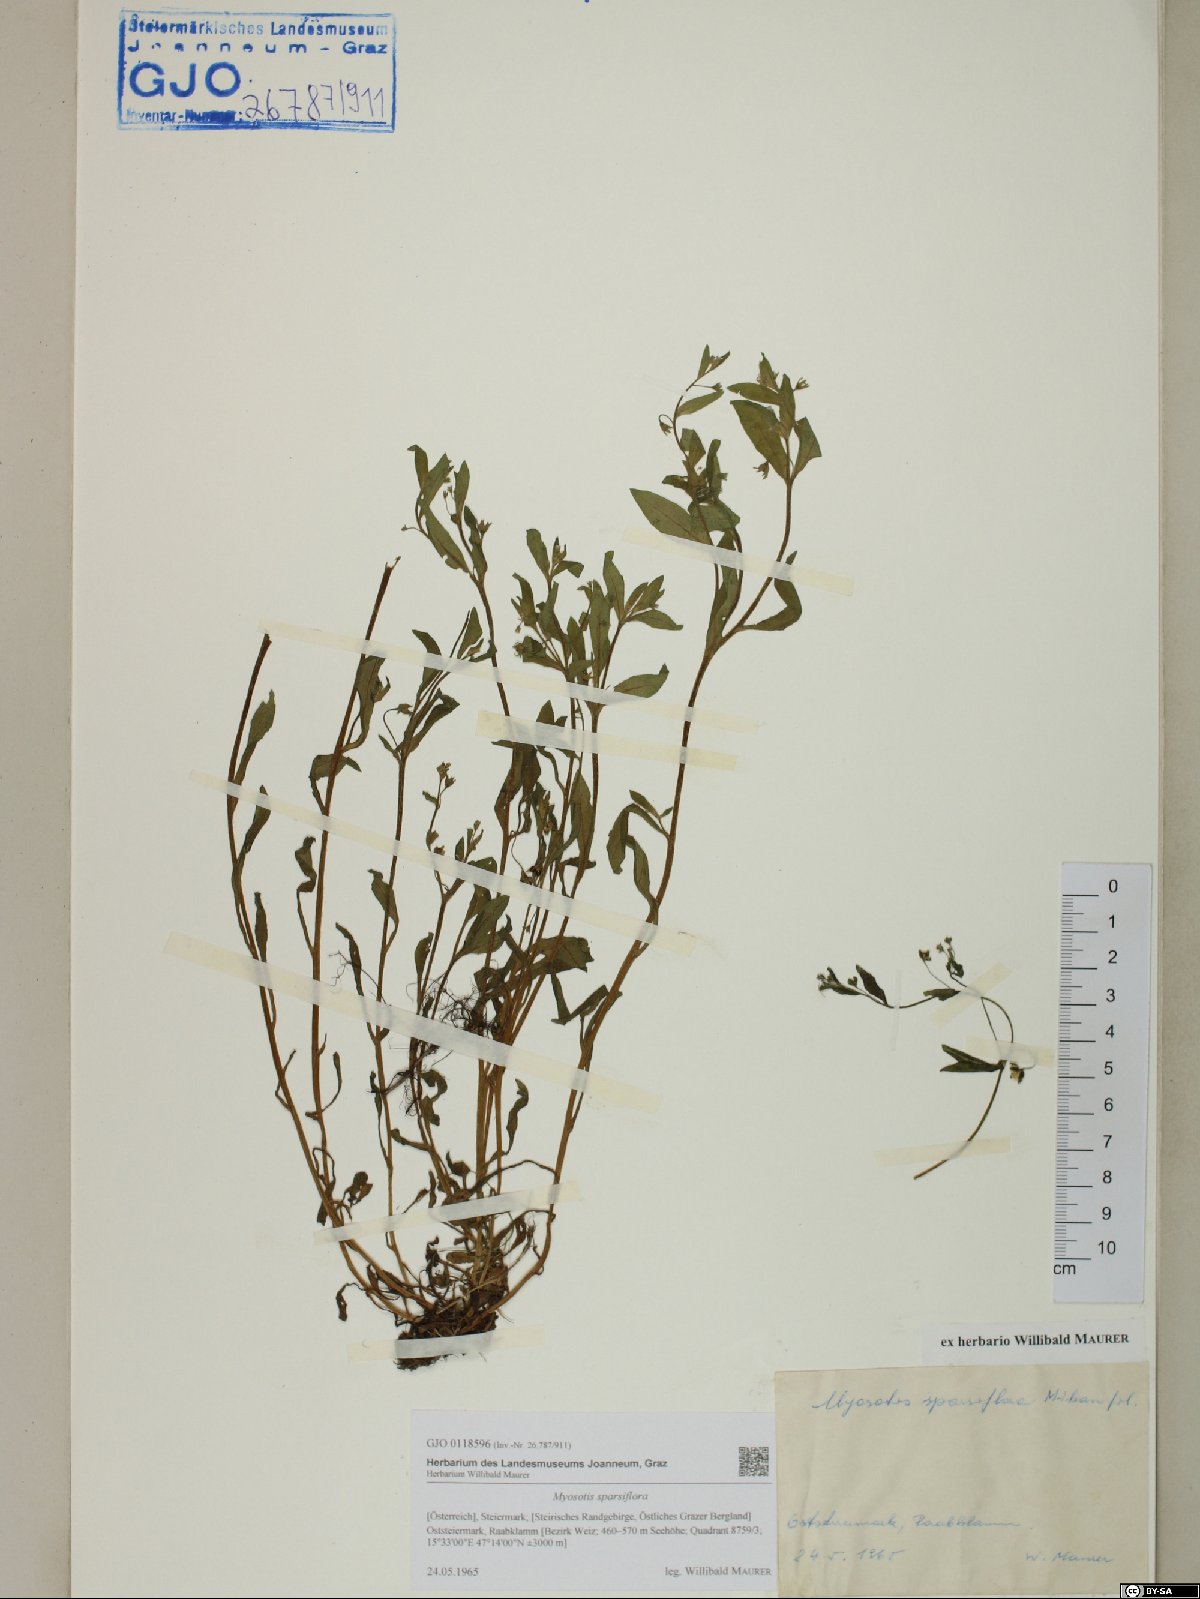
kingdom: Plantae
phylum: Tracheophyta
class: Magnoliopsida
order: Boraginales
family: Boraginaceae
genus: Myosotis
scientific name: Myosotis sparsiflora
